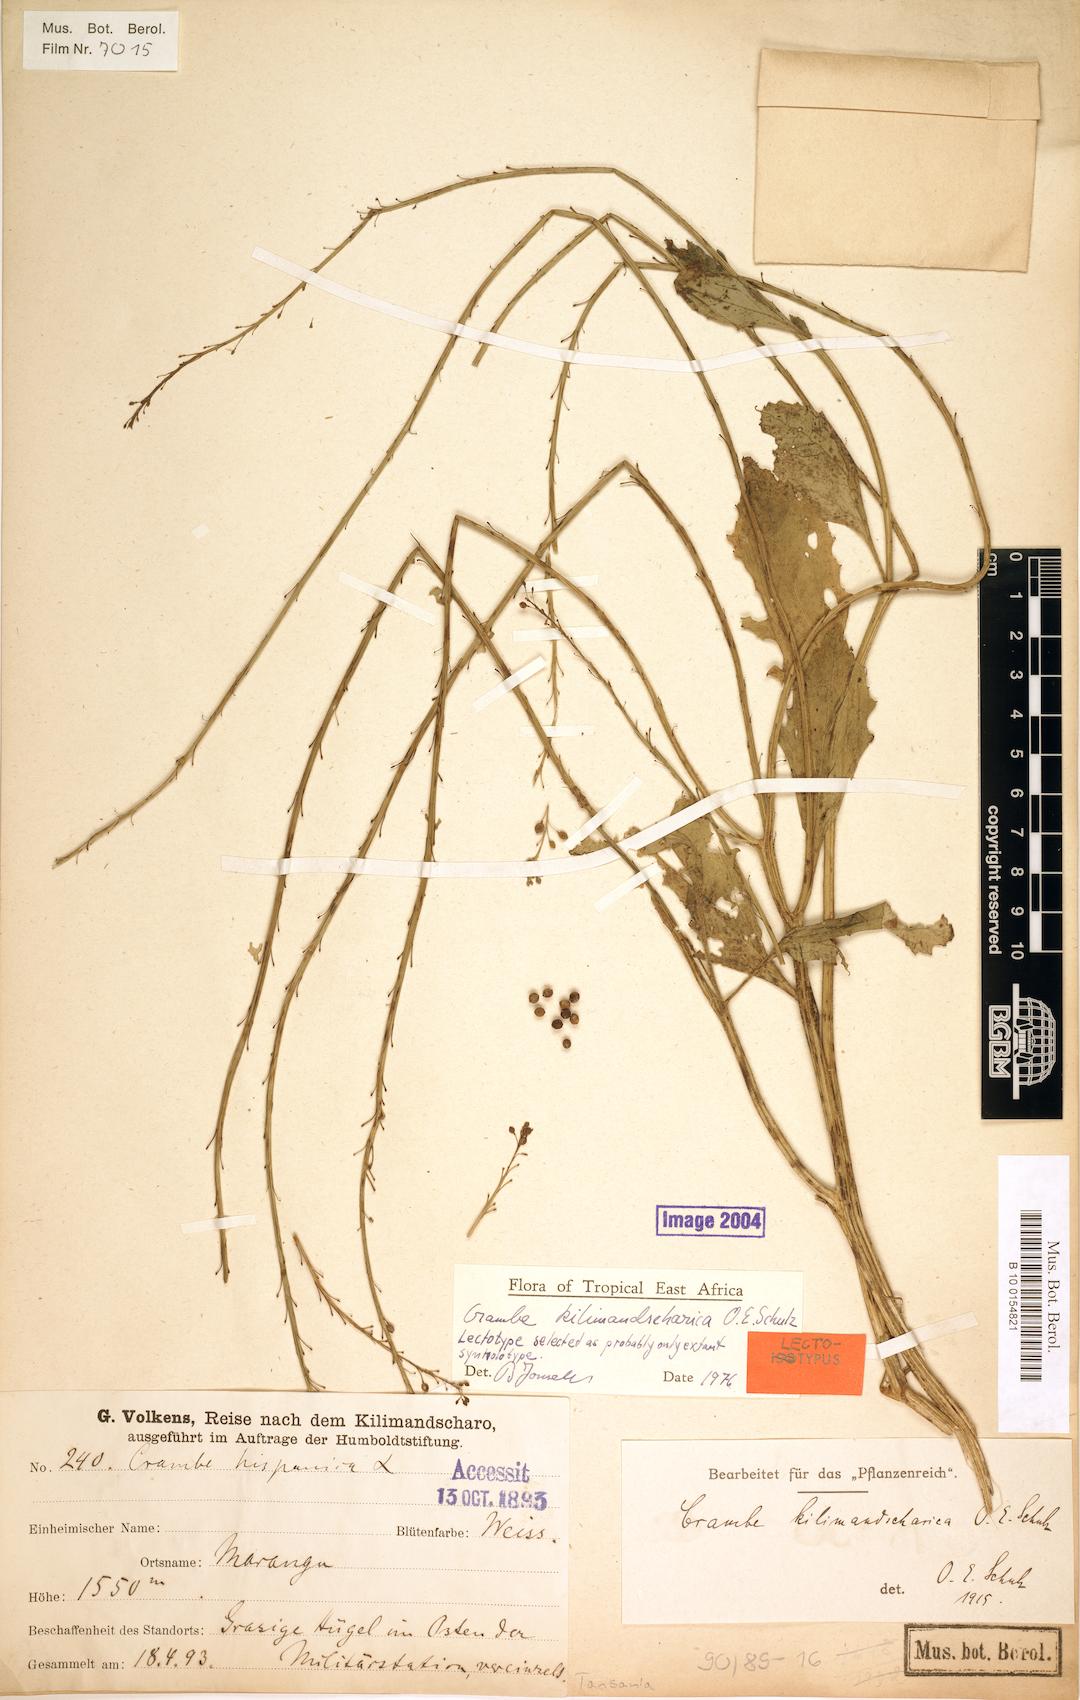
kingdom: Plantae
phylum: Tracheophyta
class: Magnoliopsida
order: Brassicales
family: Brassicaceae
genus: Crambe
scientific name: Crambe kilimandscharica
